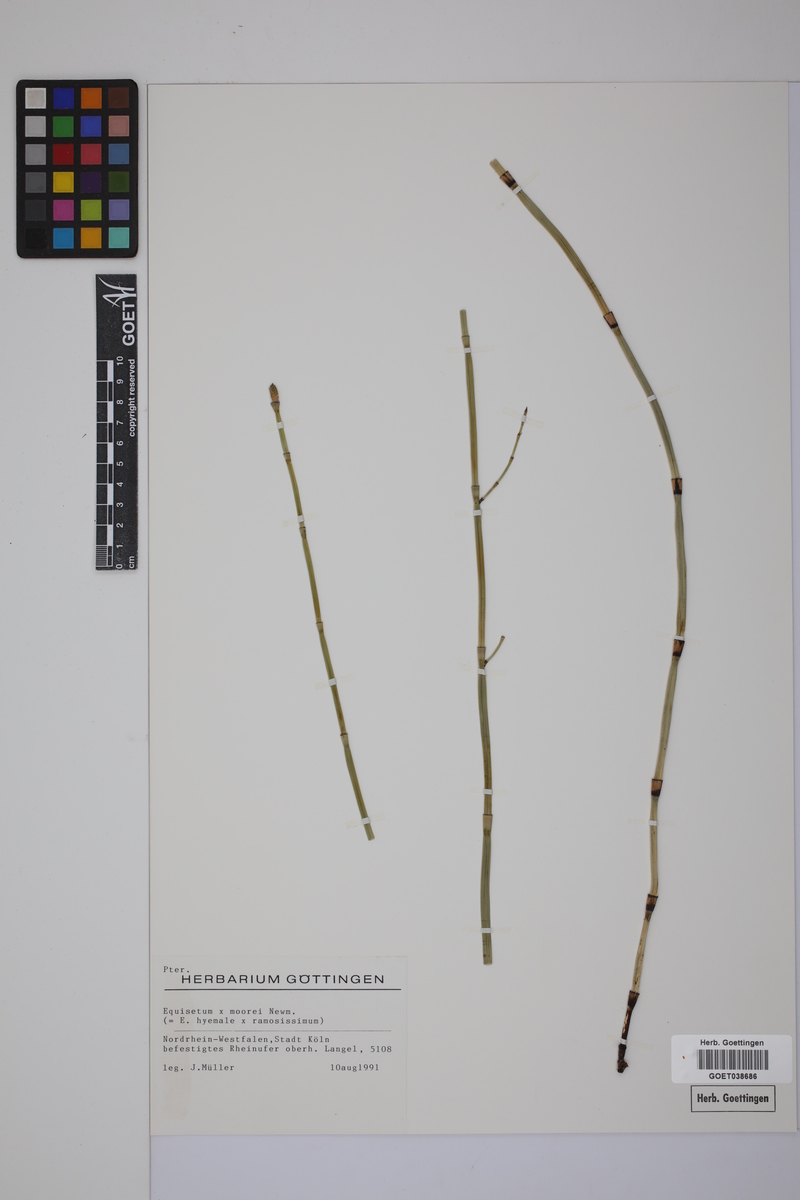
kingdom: Plantae
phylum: Tracheophyta
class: Polypodiopsida
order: Equisetales
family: Equisetaceae
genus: Equisetum
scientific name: Equisetum hyemale
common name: Rough horsetail
